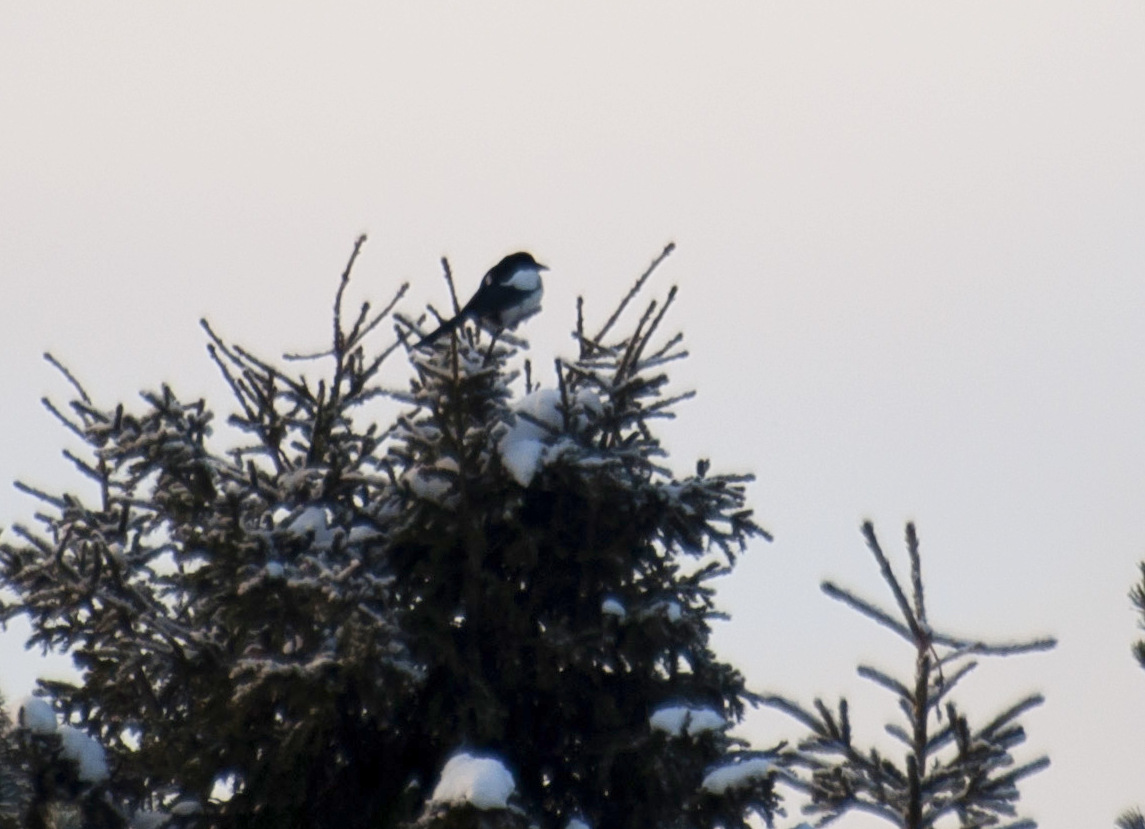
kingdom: Animalia
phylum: Chordata
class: Aves
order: Passeriformes
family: Corvidae
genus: Pica
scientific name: Pica pica
